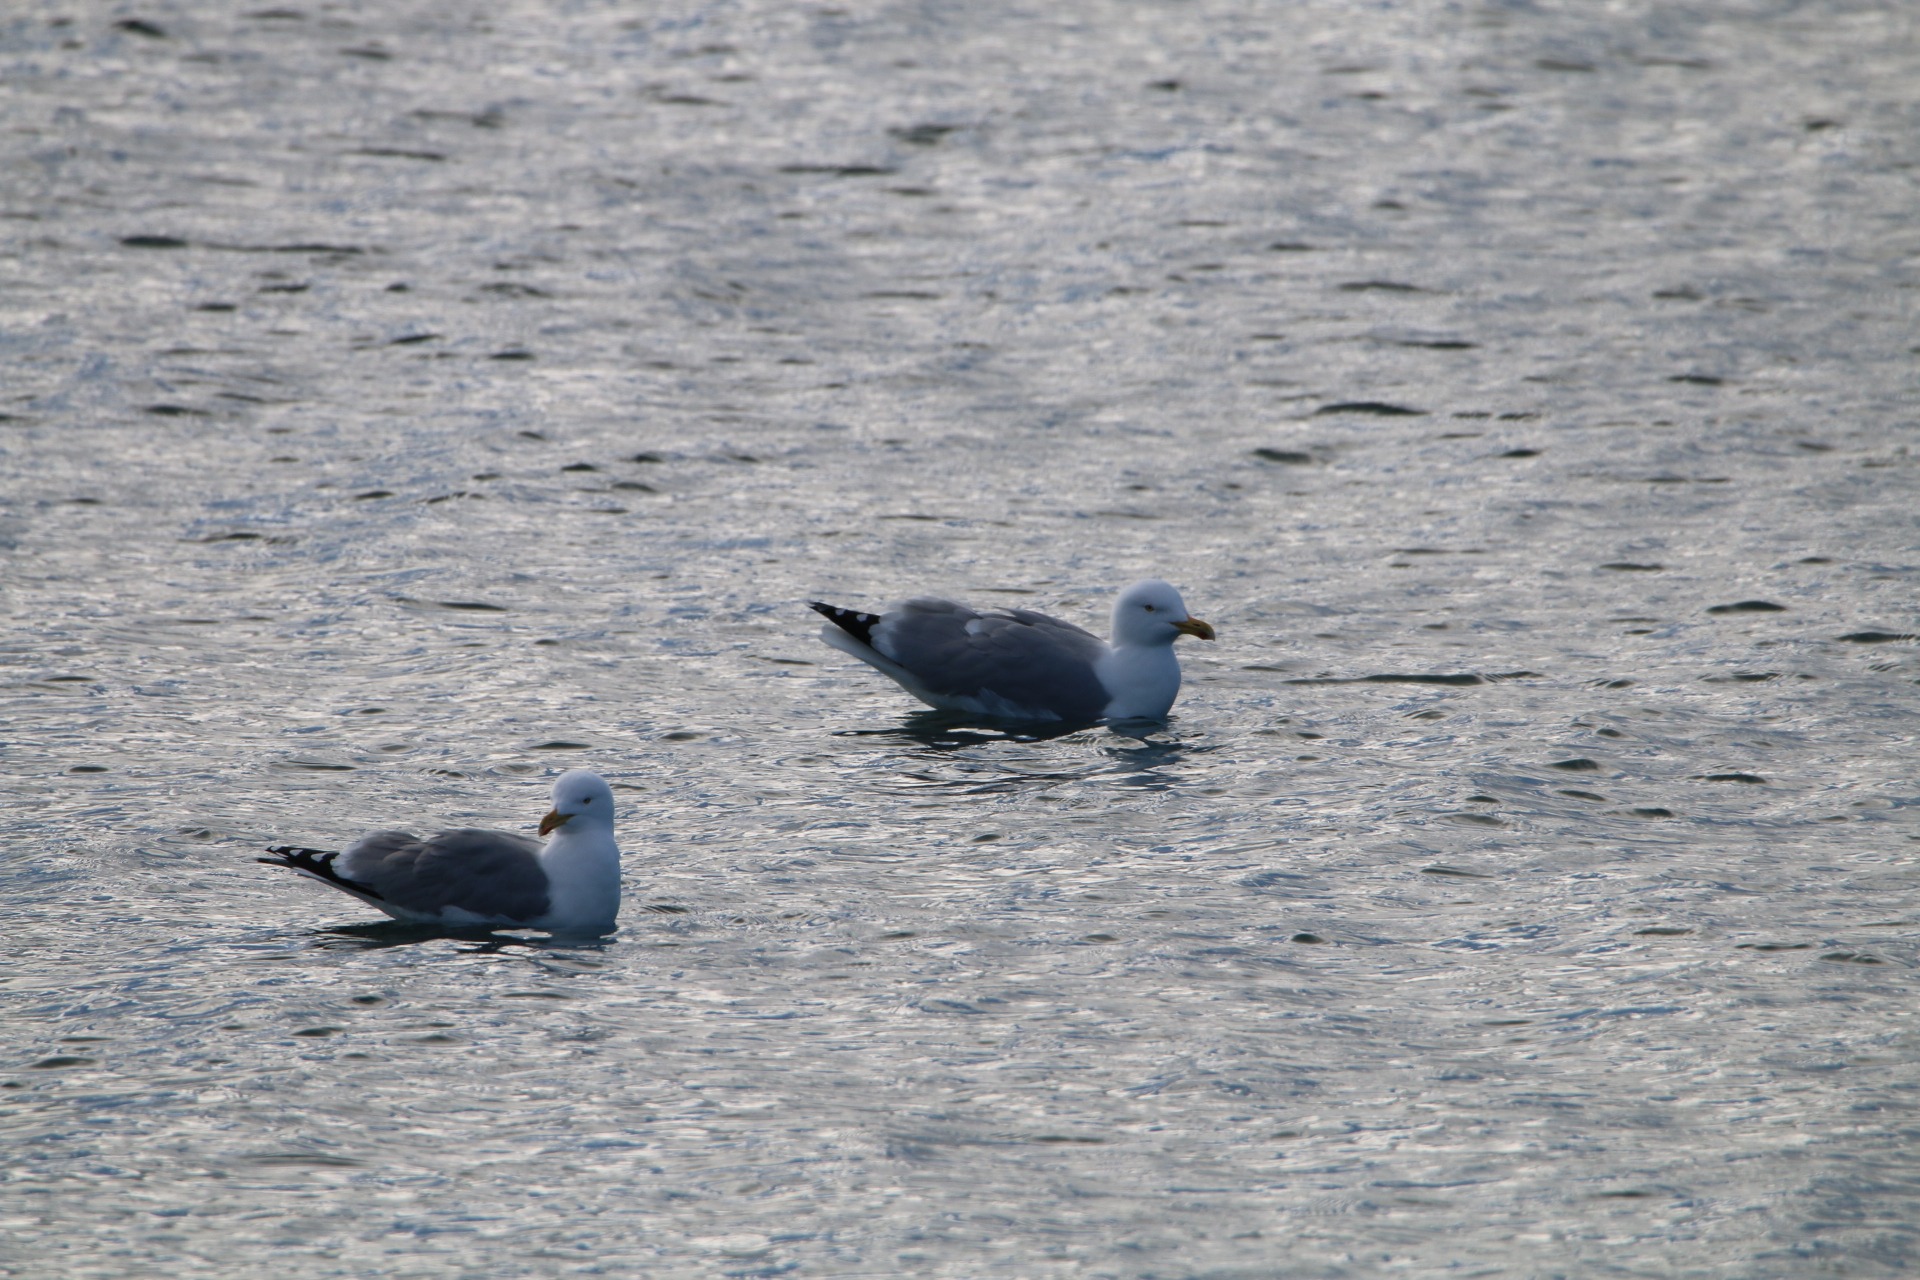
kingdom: Animalia
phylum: Chordata
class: Aves
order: Charadriiformes
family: Laridae
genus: Larus
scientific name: Larus argentatus
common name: Sølvmåge
